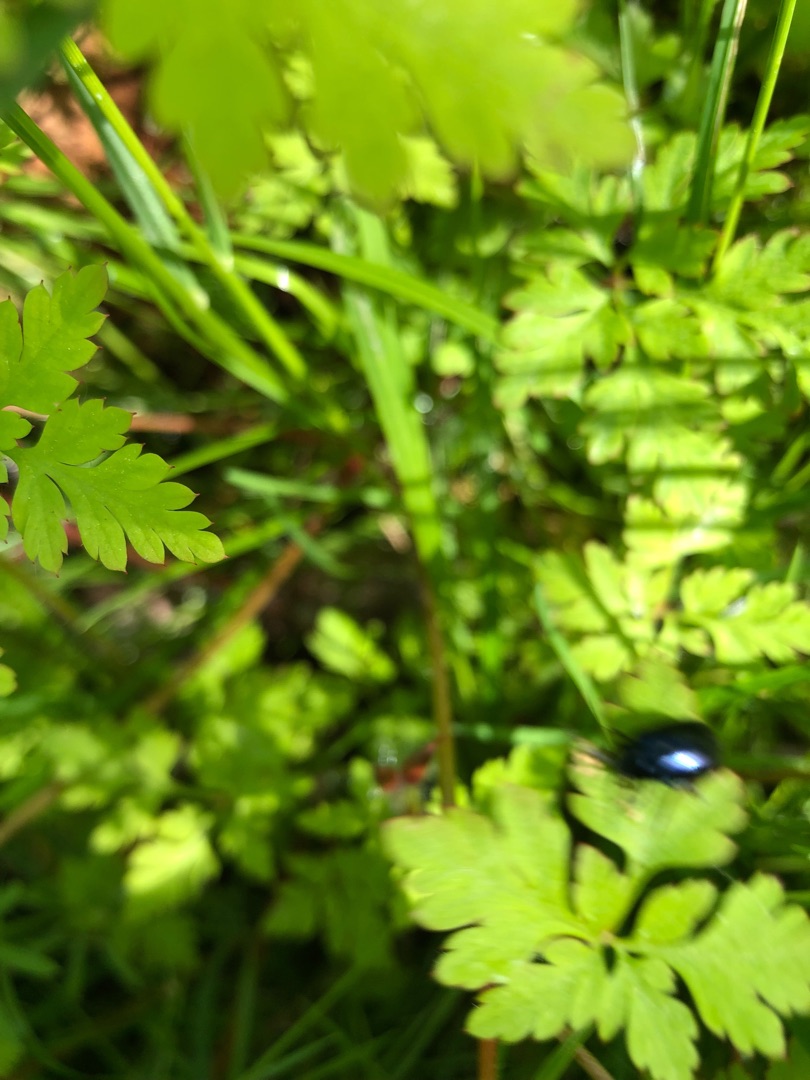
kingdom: Animalia
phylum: Arthropoda
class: Insecta
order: Coleoptera
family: Chrysomelidae
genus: Agelastica
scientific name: Agelastica alni
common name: Ellebladbille
